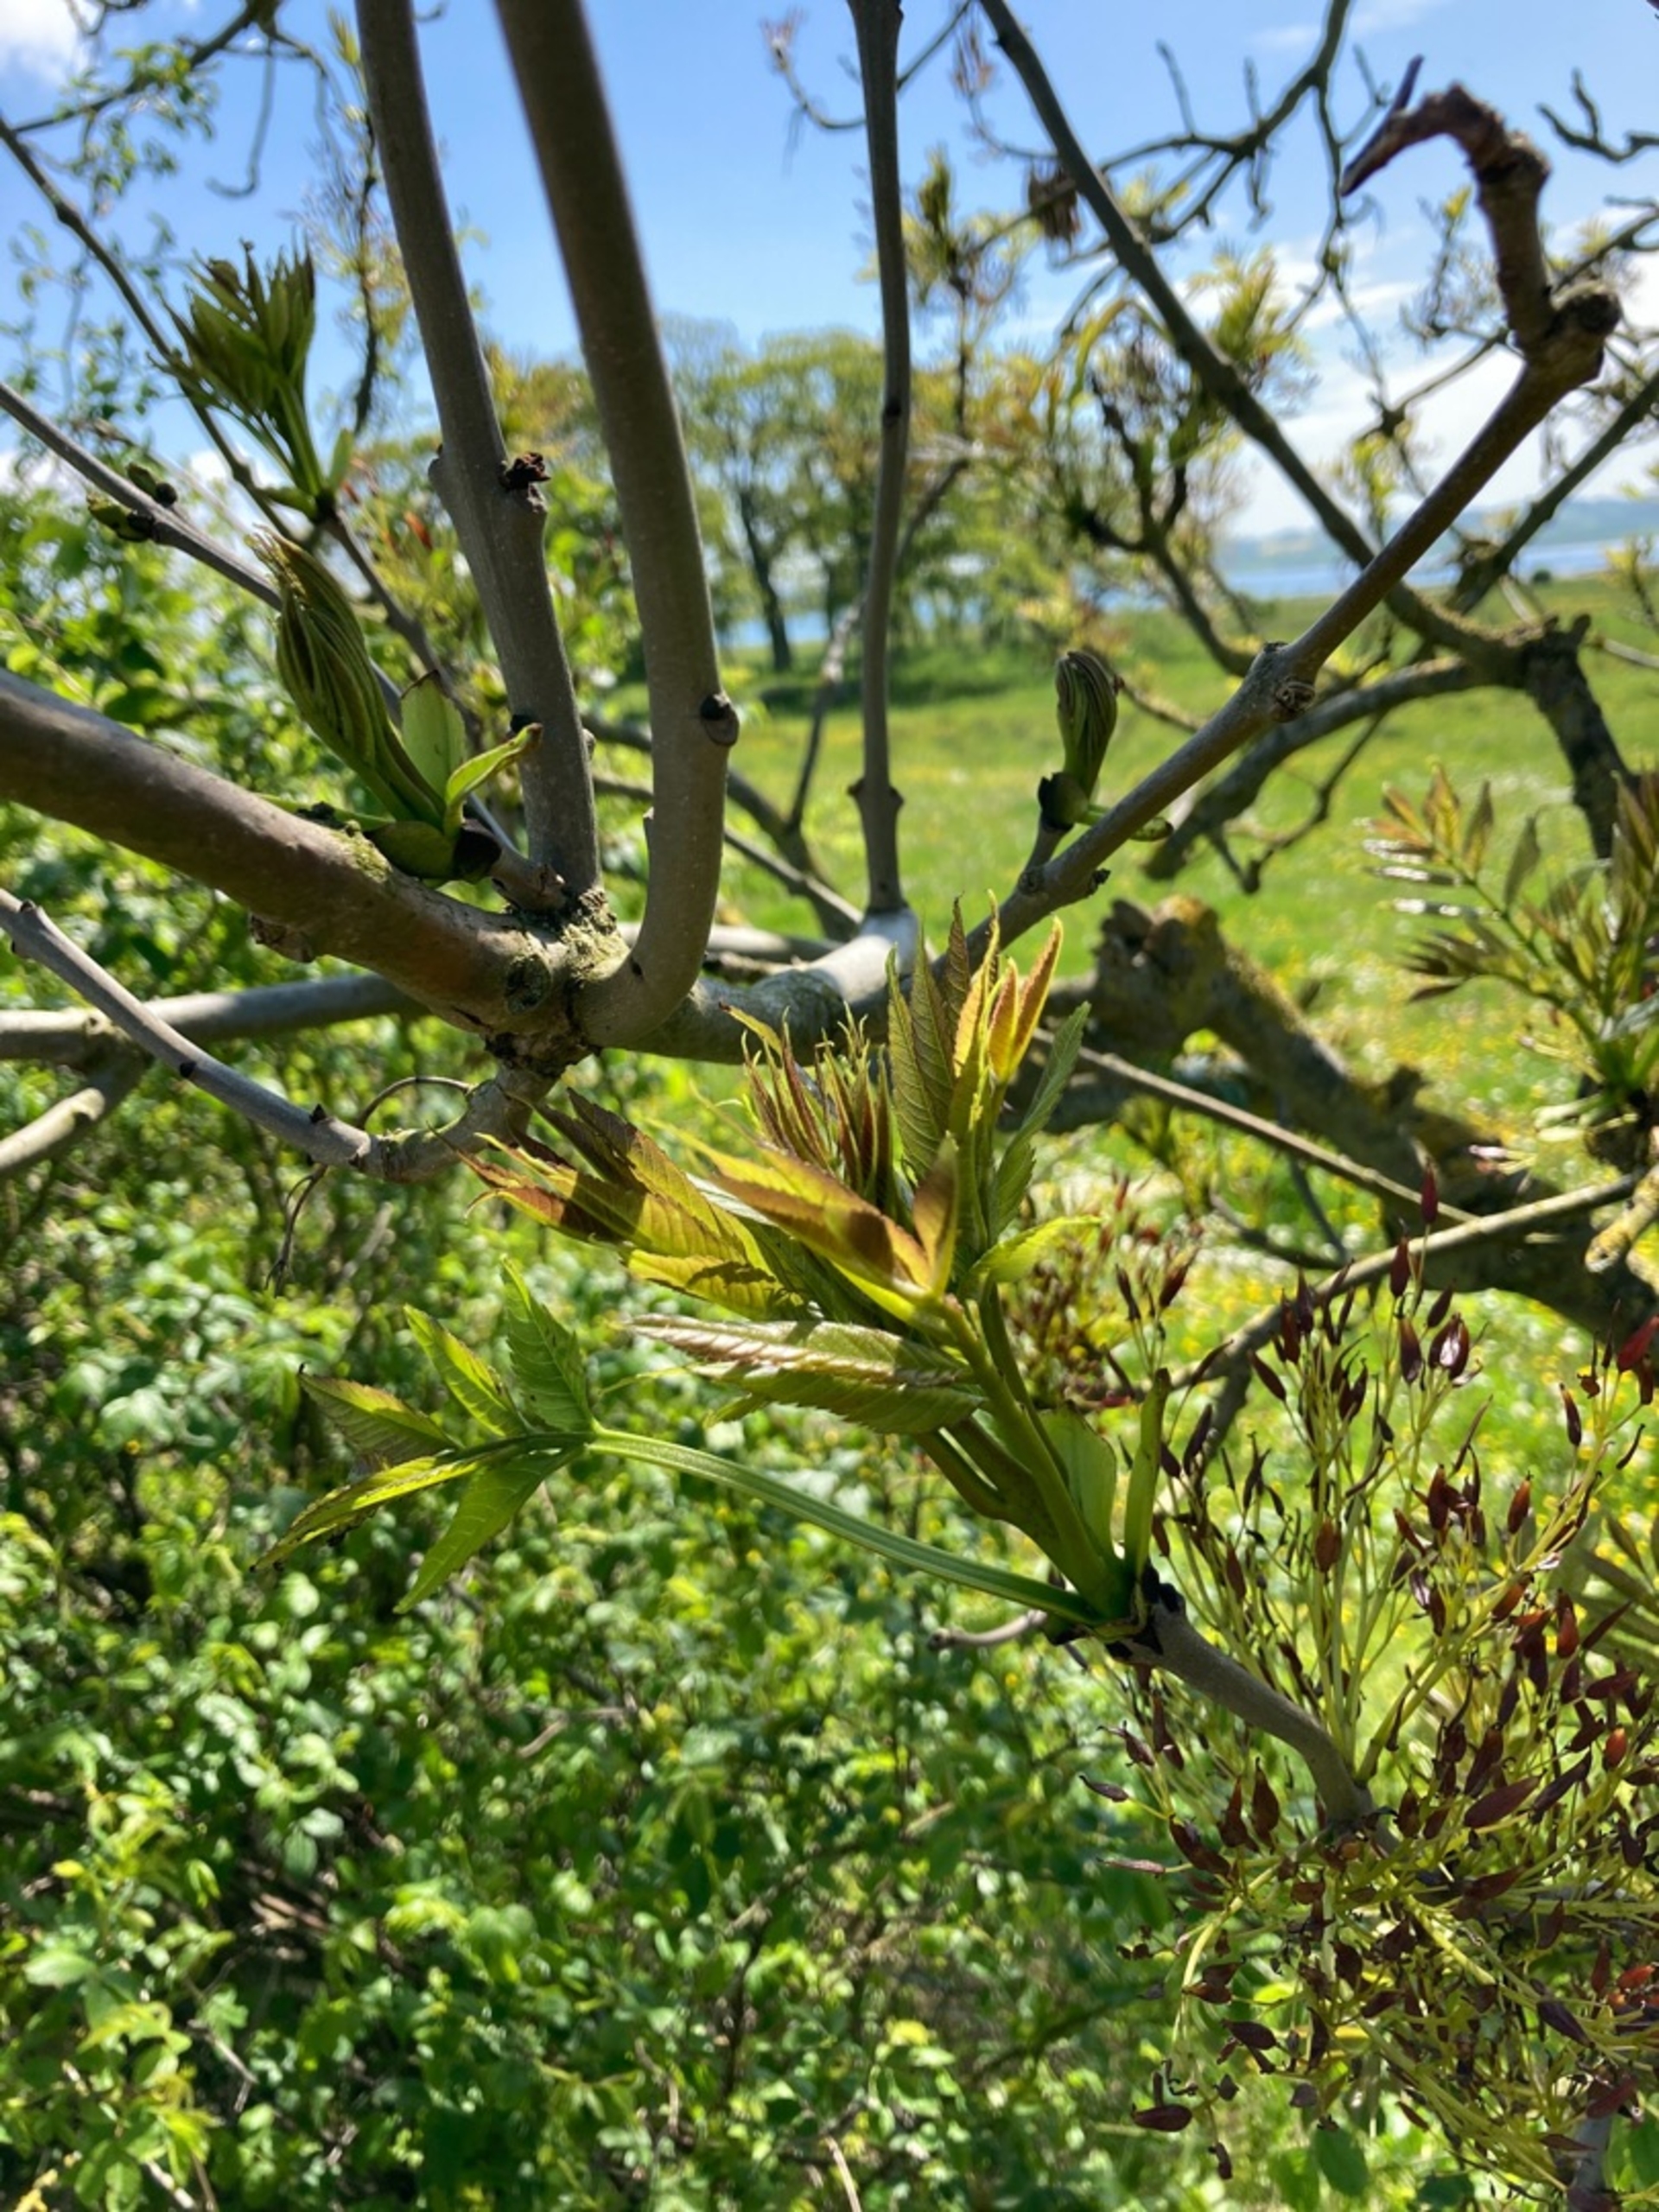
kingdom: Plantae
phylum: Tracheophyta
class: Magnoliopsida
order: Lamiales
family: Oleaceae
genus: Fraxinus
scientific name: Fraxinus excelsior
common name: Ask
